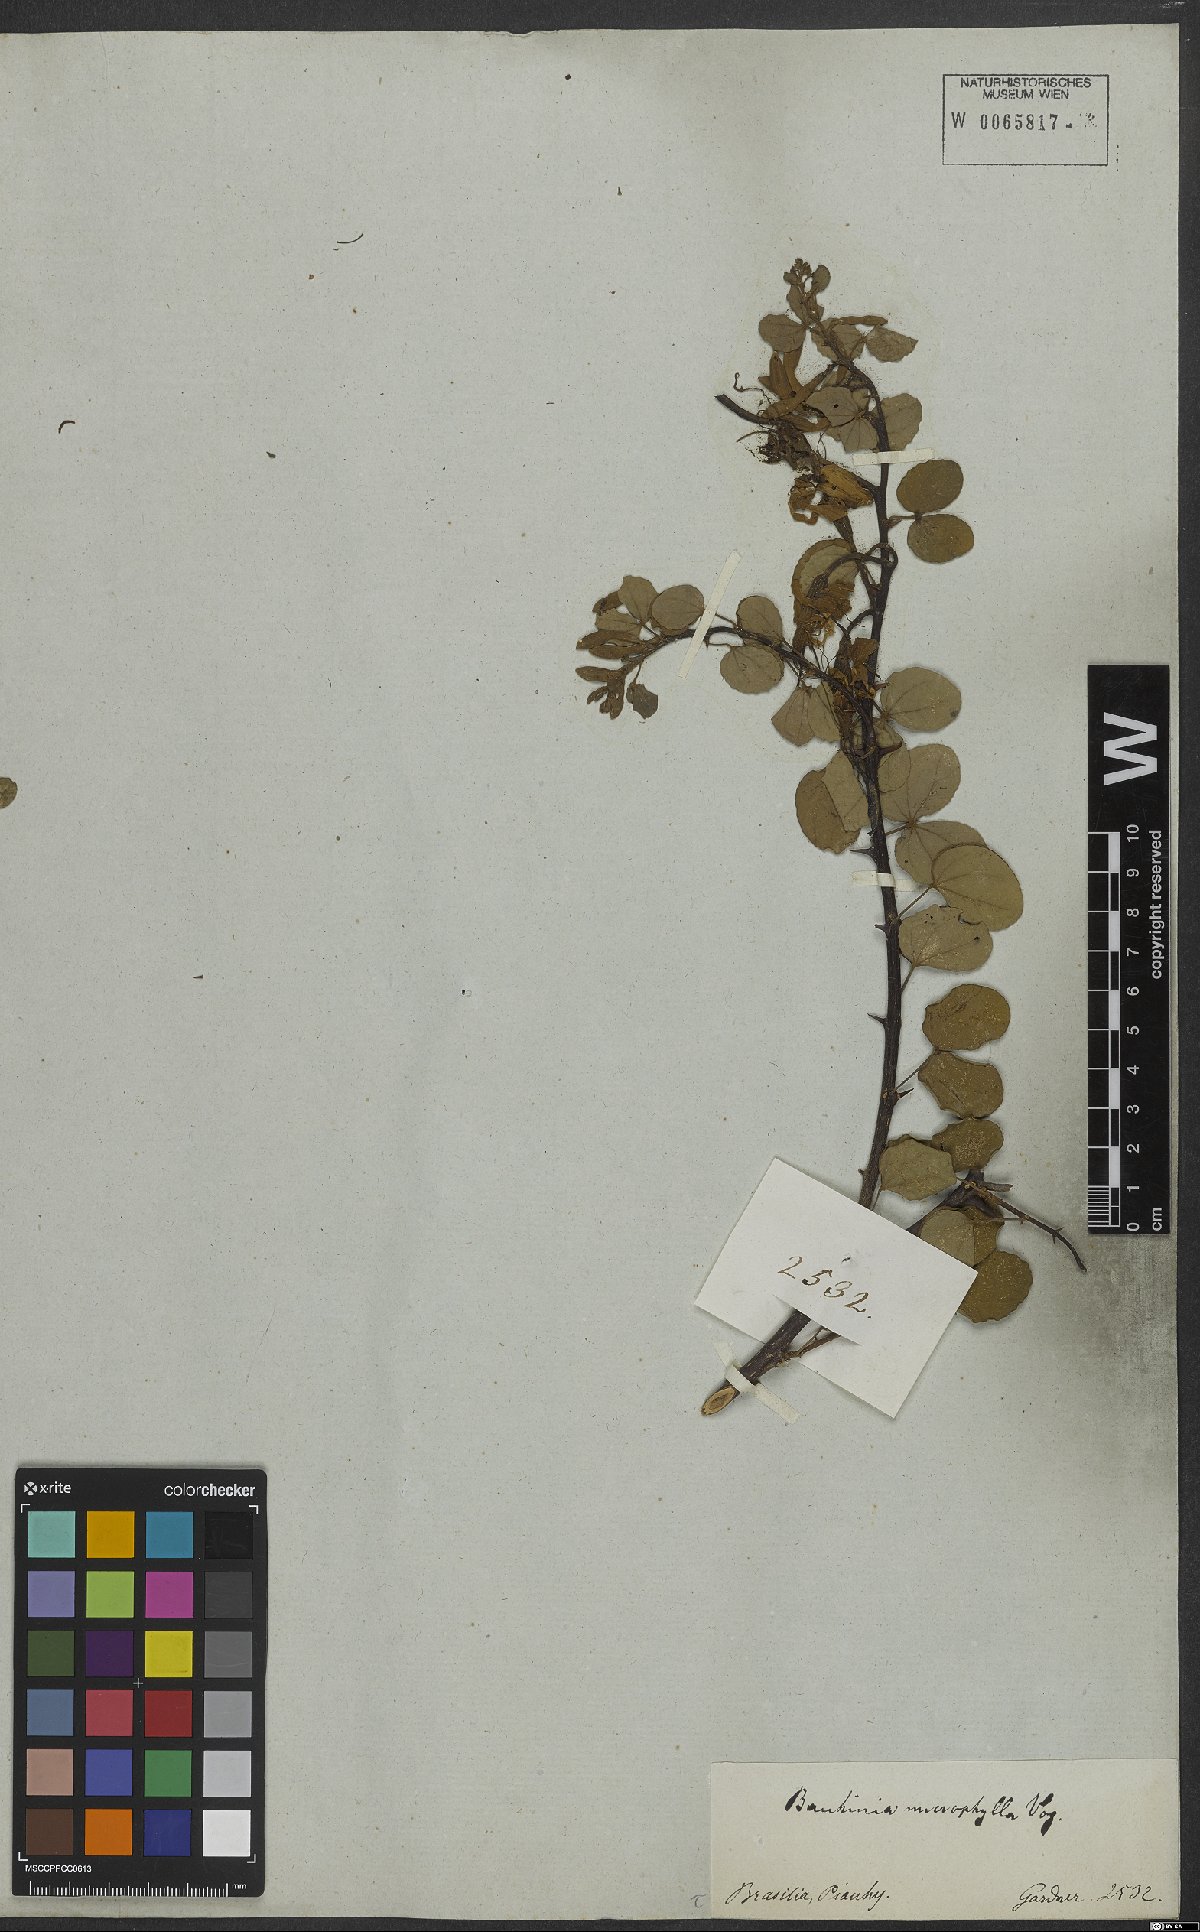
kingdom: Plantae
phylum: Tracheophyta
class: Magnoliopsida
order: Fabales
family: Fabaceae
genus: Bauhinia
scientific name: Bauhinia bauhinioides
